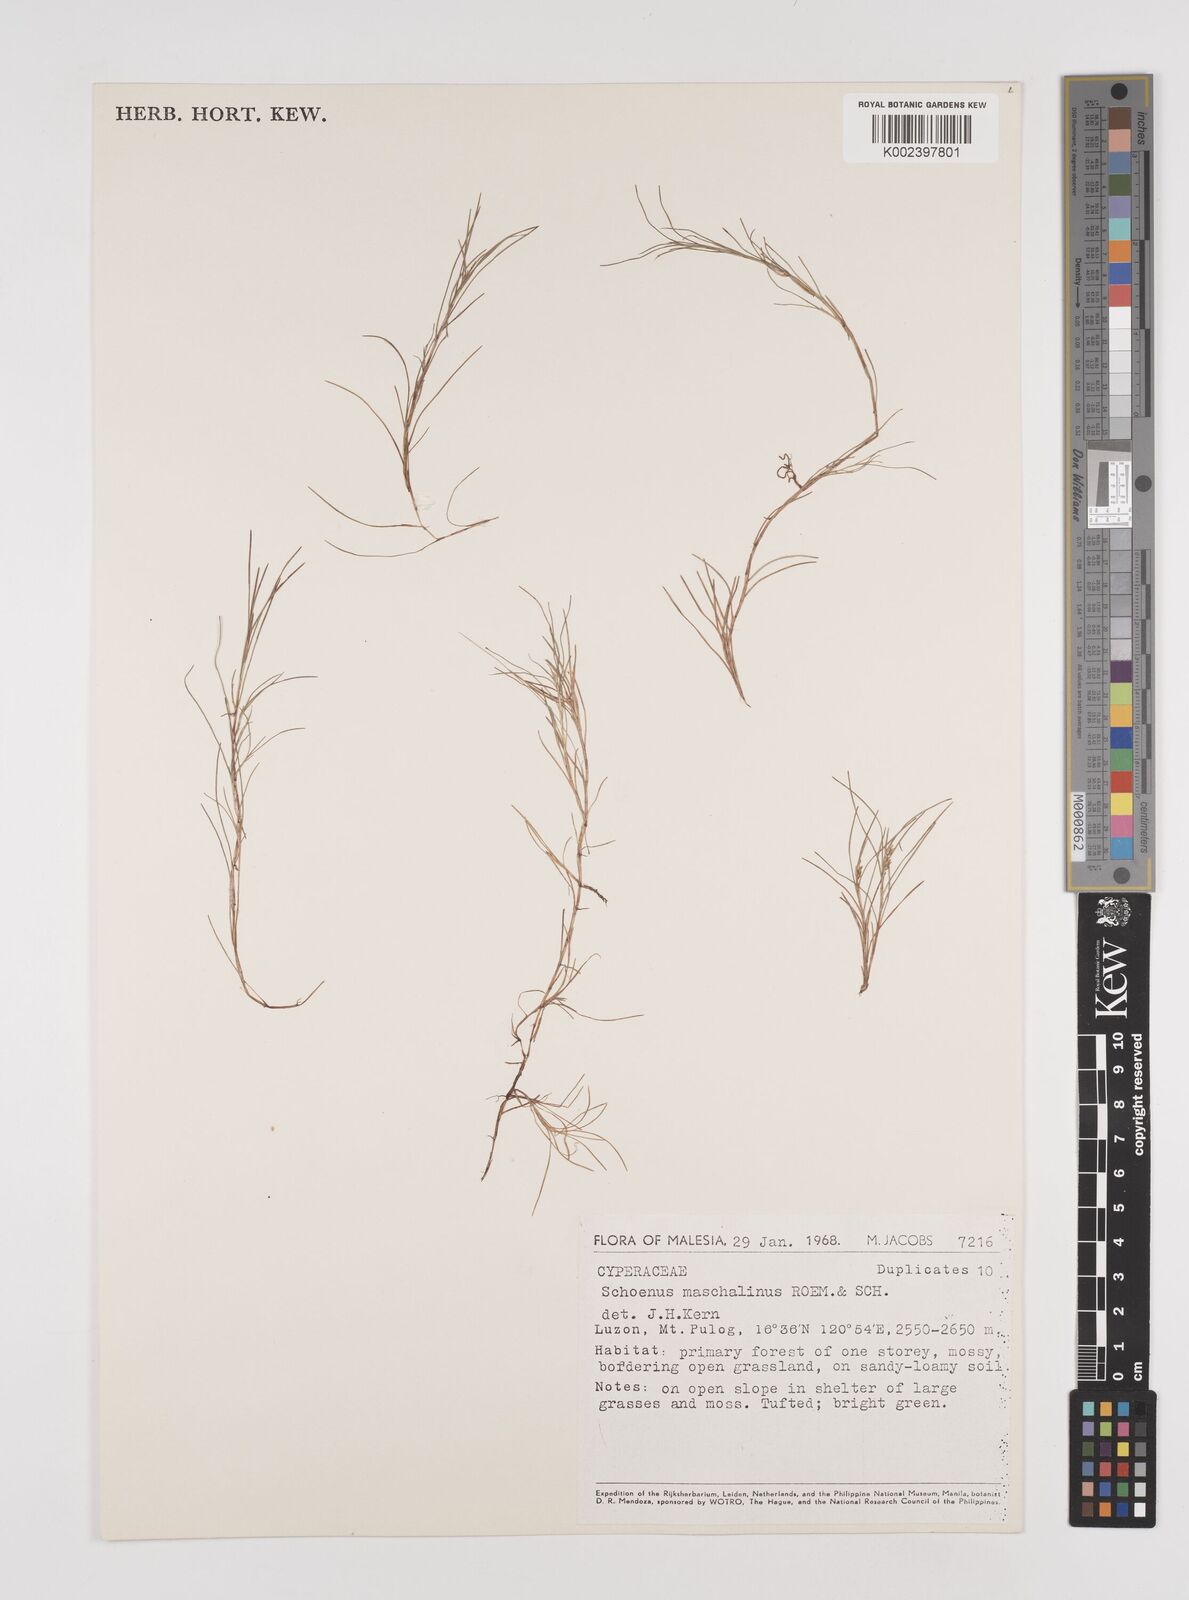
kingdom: Plantae
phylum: Tracheophyta
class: Liliopsida
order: Poales
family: Cyperaceae
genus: Schoenus
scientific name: Schoenus maschalinus
